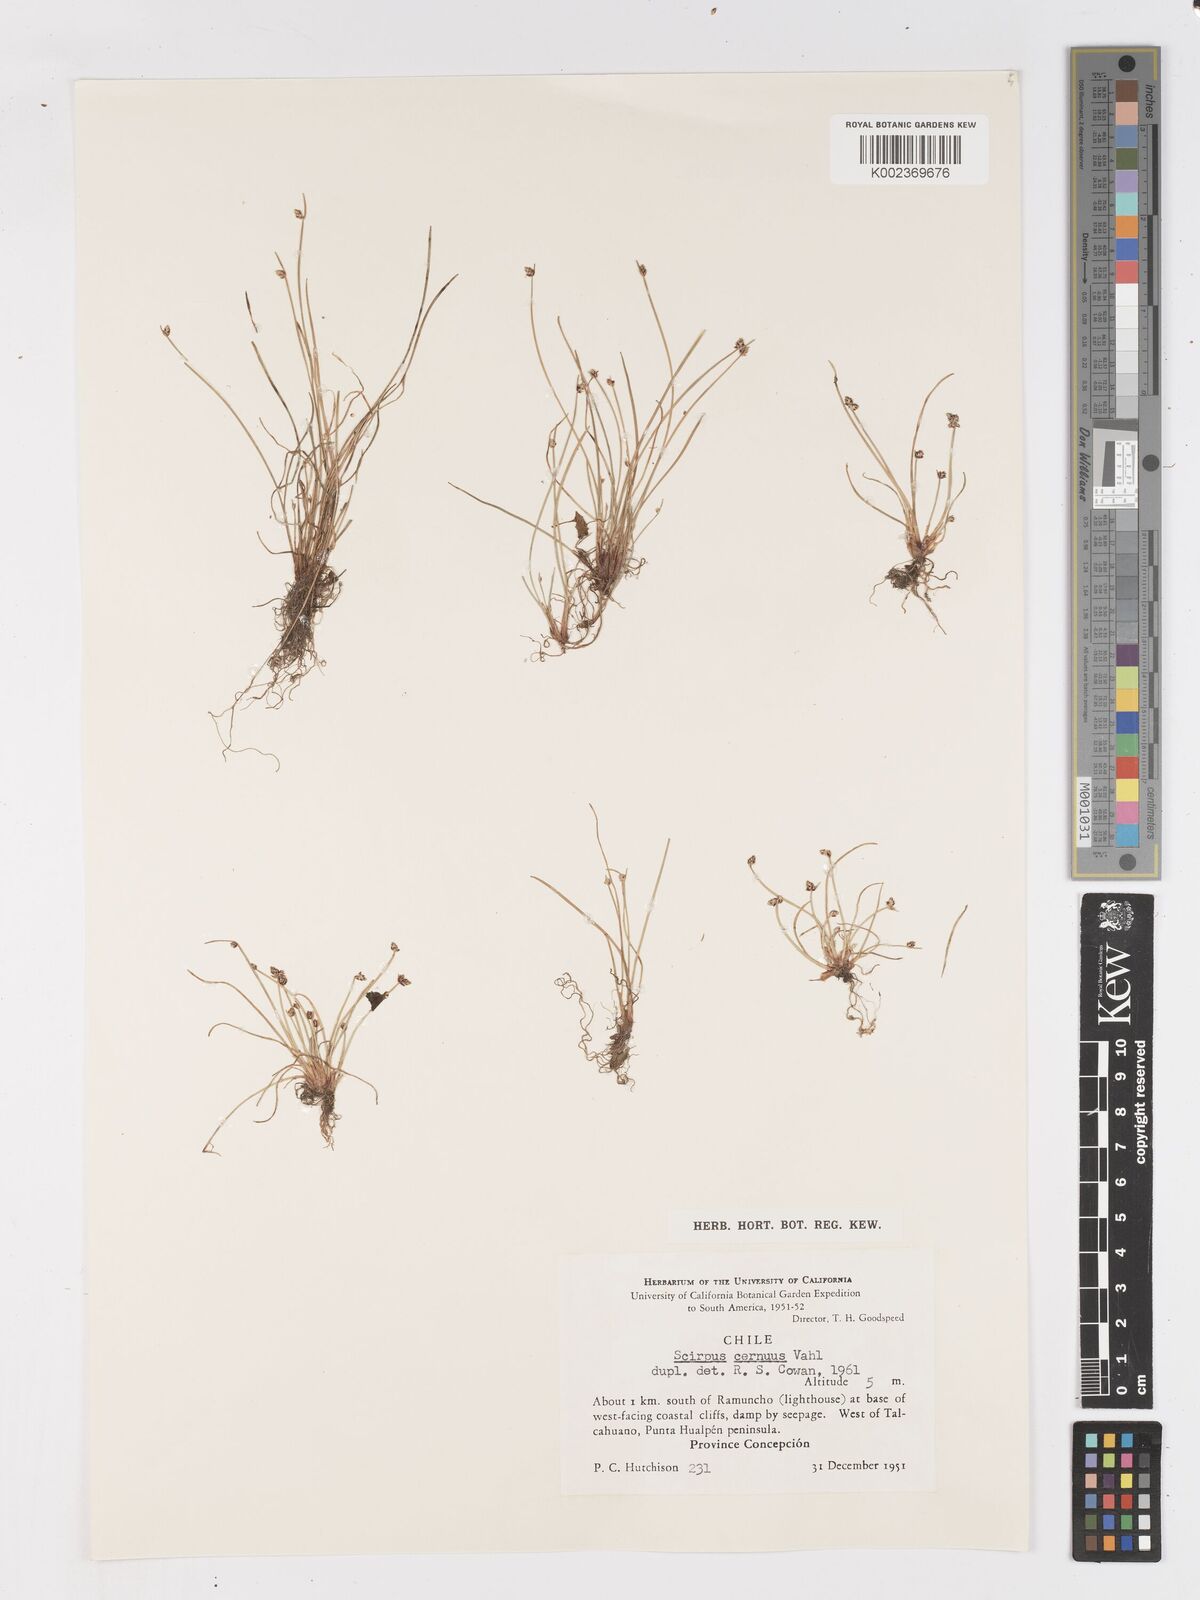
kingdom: Plantae
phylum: Tracheophyta
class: Liliopsida
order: Poales
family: Cyperaceae
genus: Isolepis
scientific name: Isolepis cernua
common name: Slender club-rush
